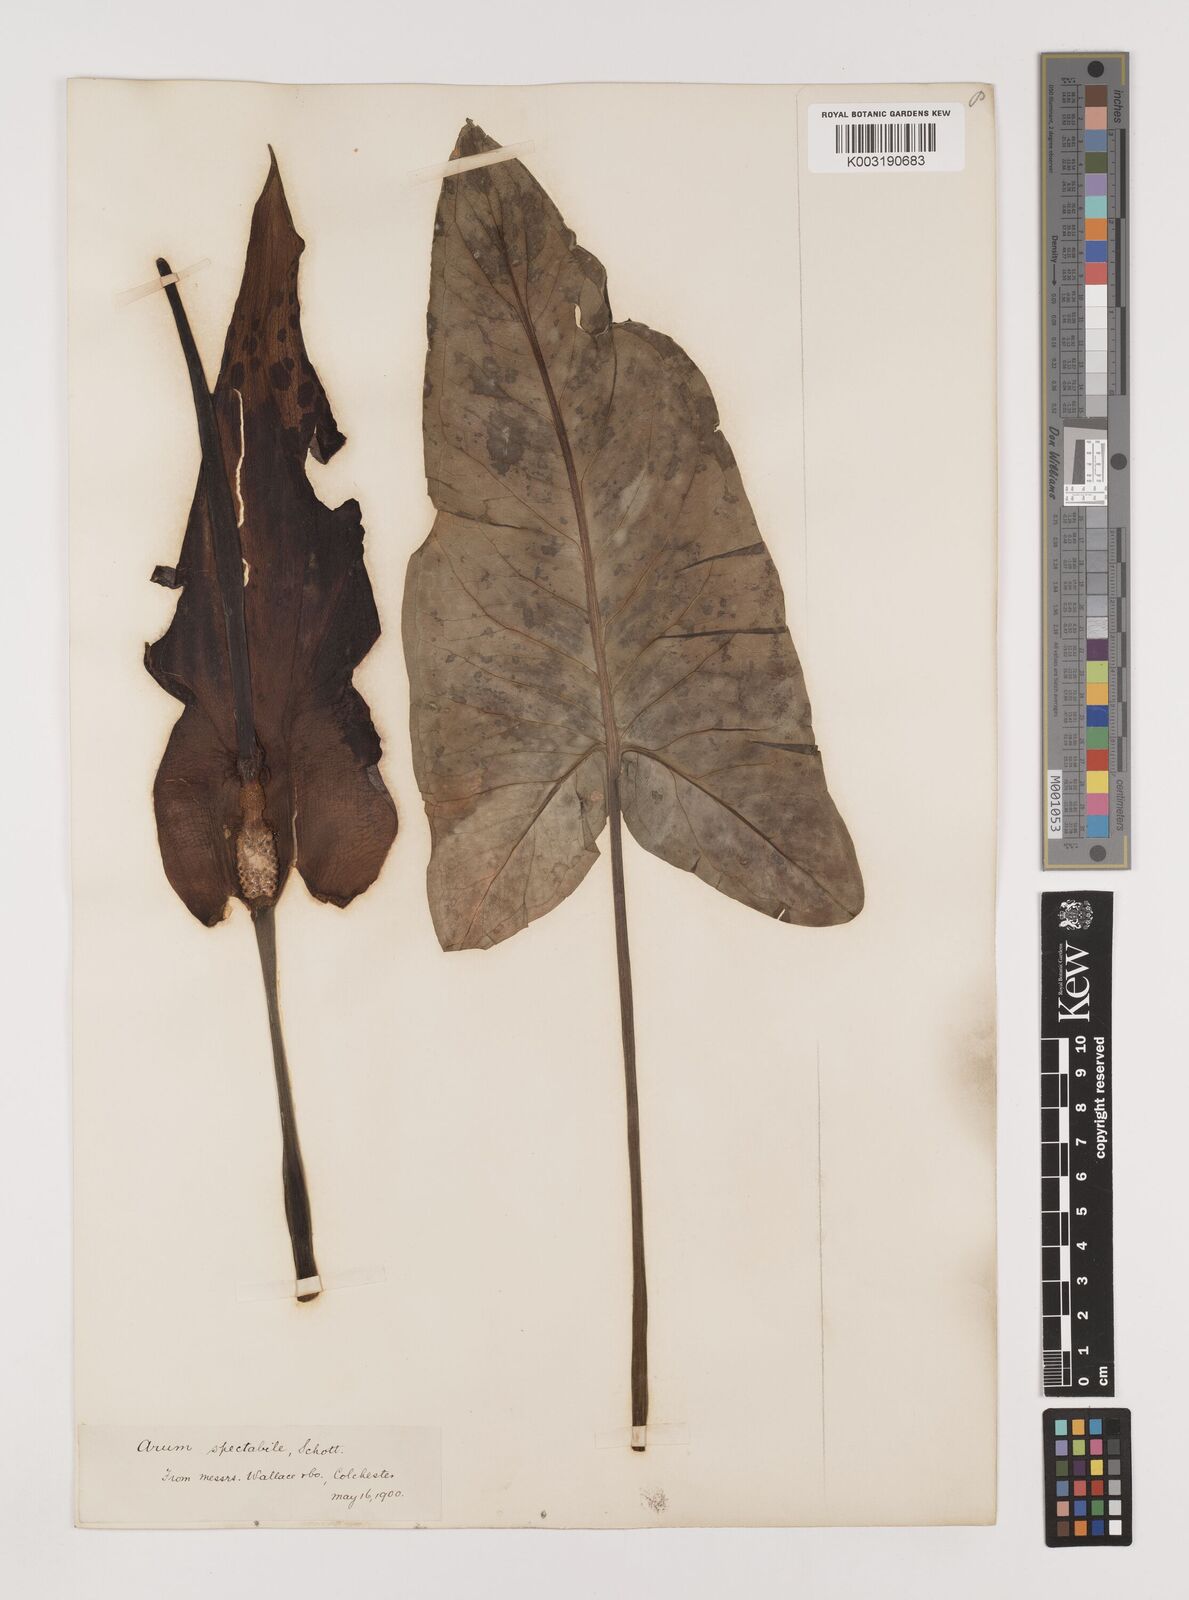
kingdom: Plantae
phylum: Tracheophyta
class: Liliopsida
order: Alismatales
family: Araceae
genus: Arum
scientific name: Arum dioscoridis
